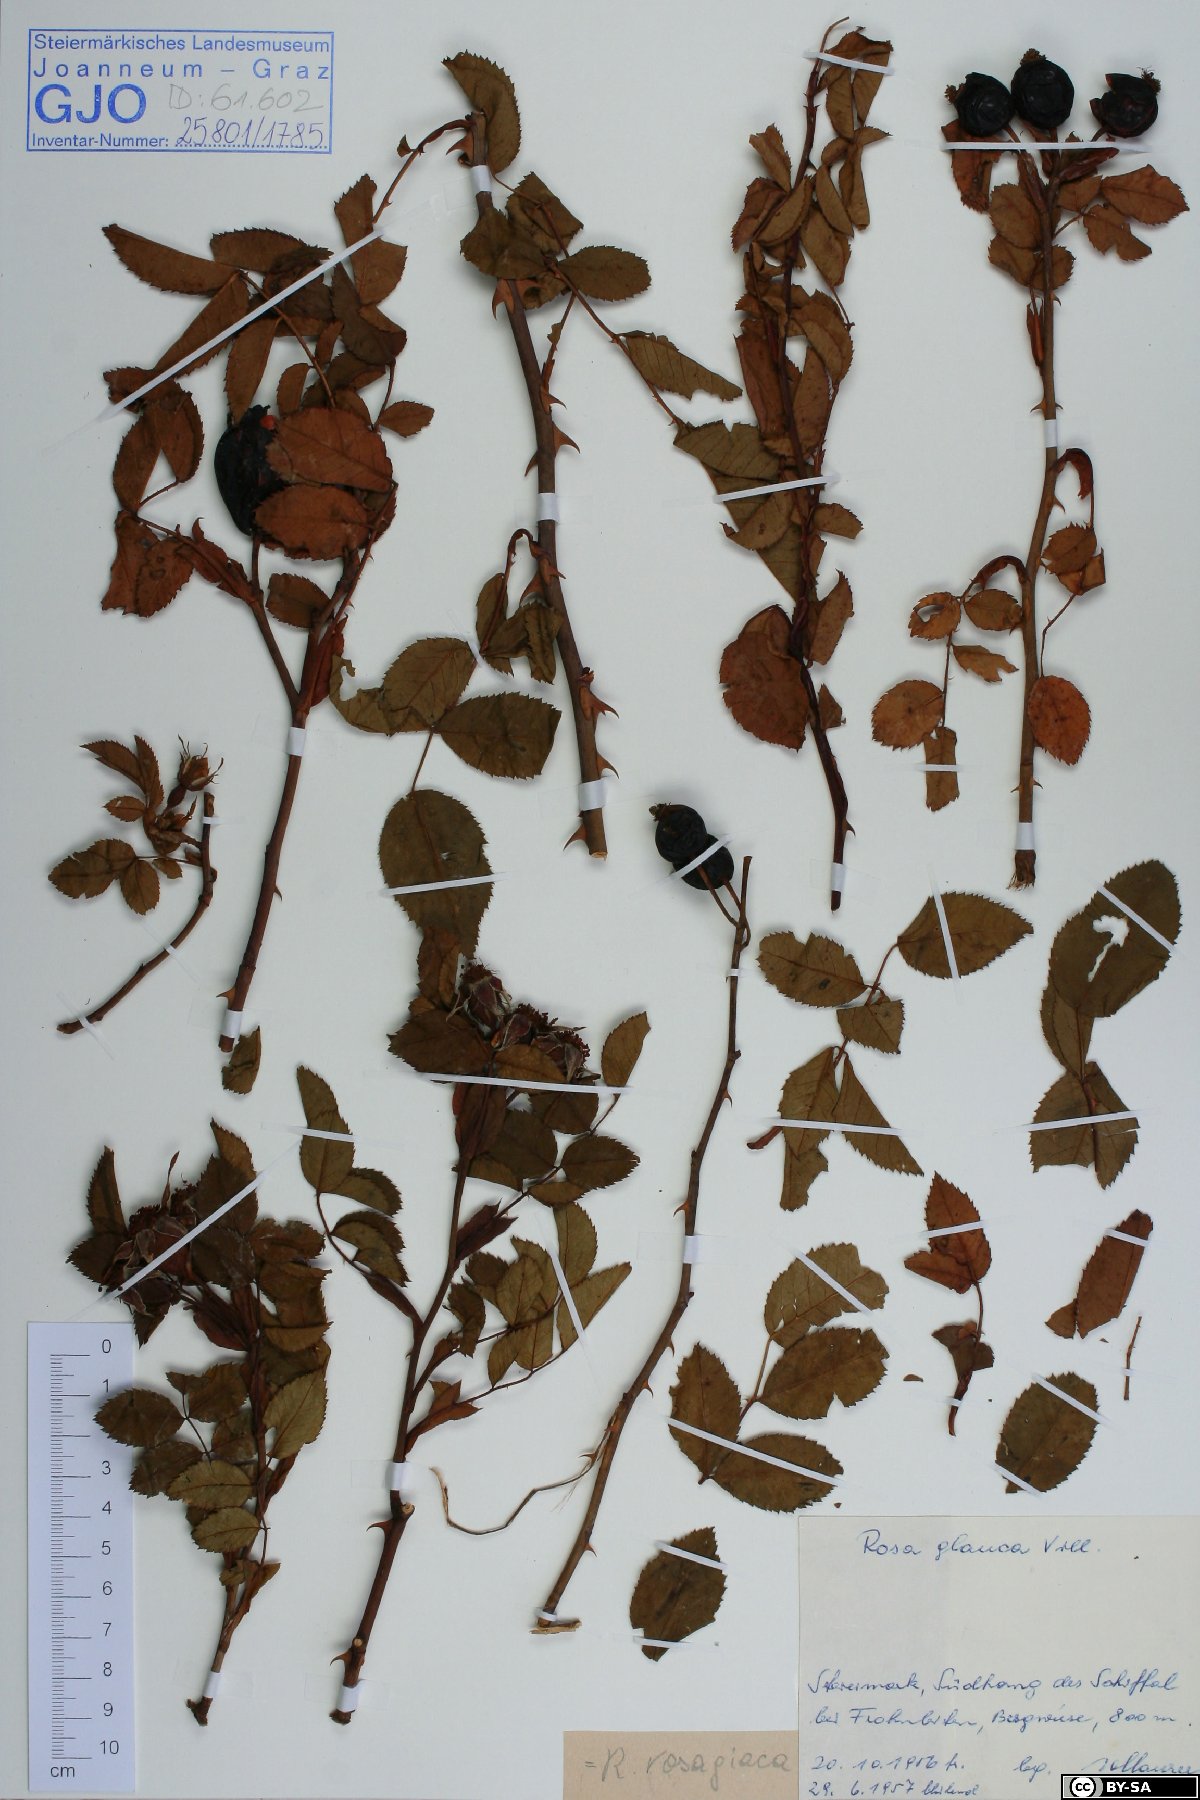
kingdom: Plantae
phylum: Tracheophyta
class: Magnoliopsida
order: Rosales
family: Rosaceae
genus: Rosa
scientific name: Rosa vosagiaca
